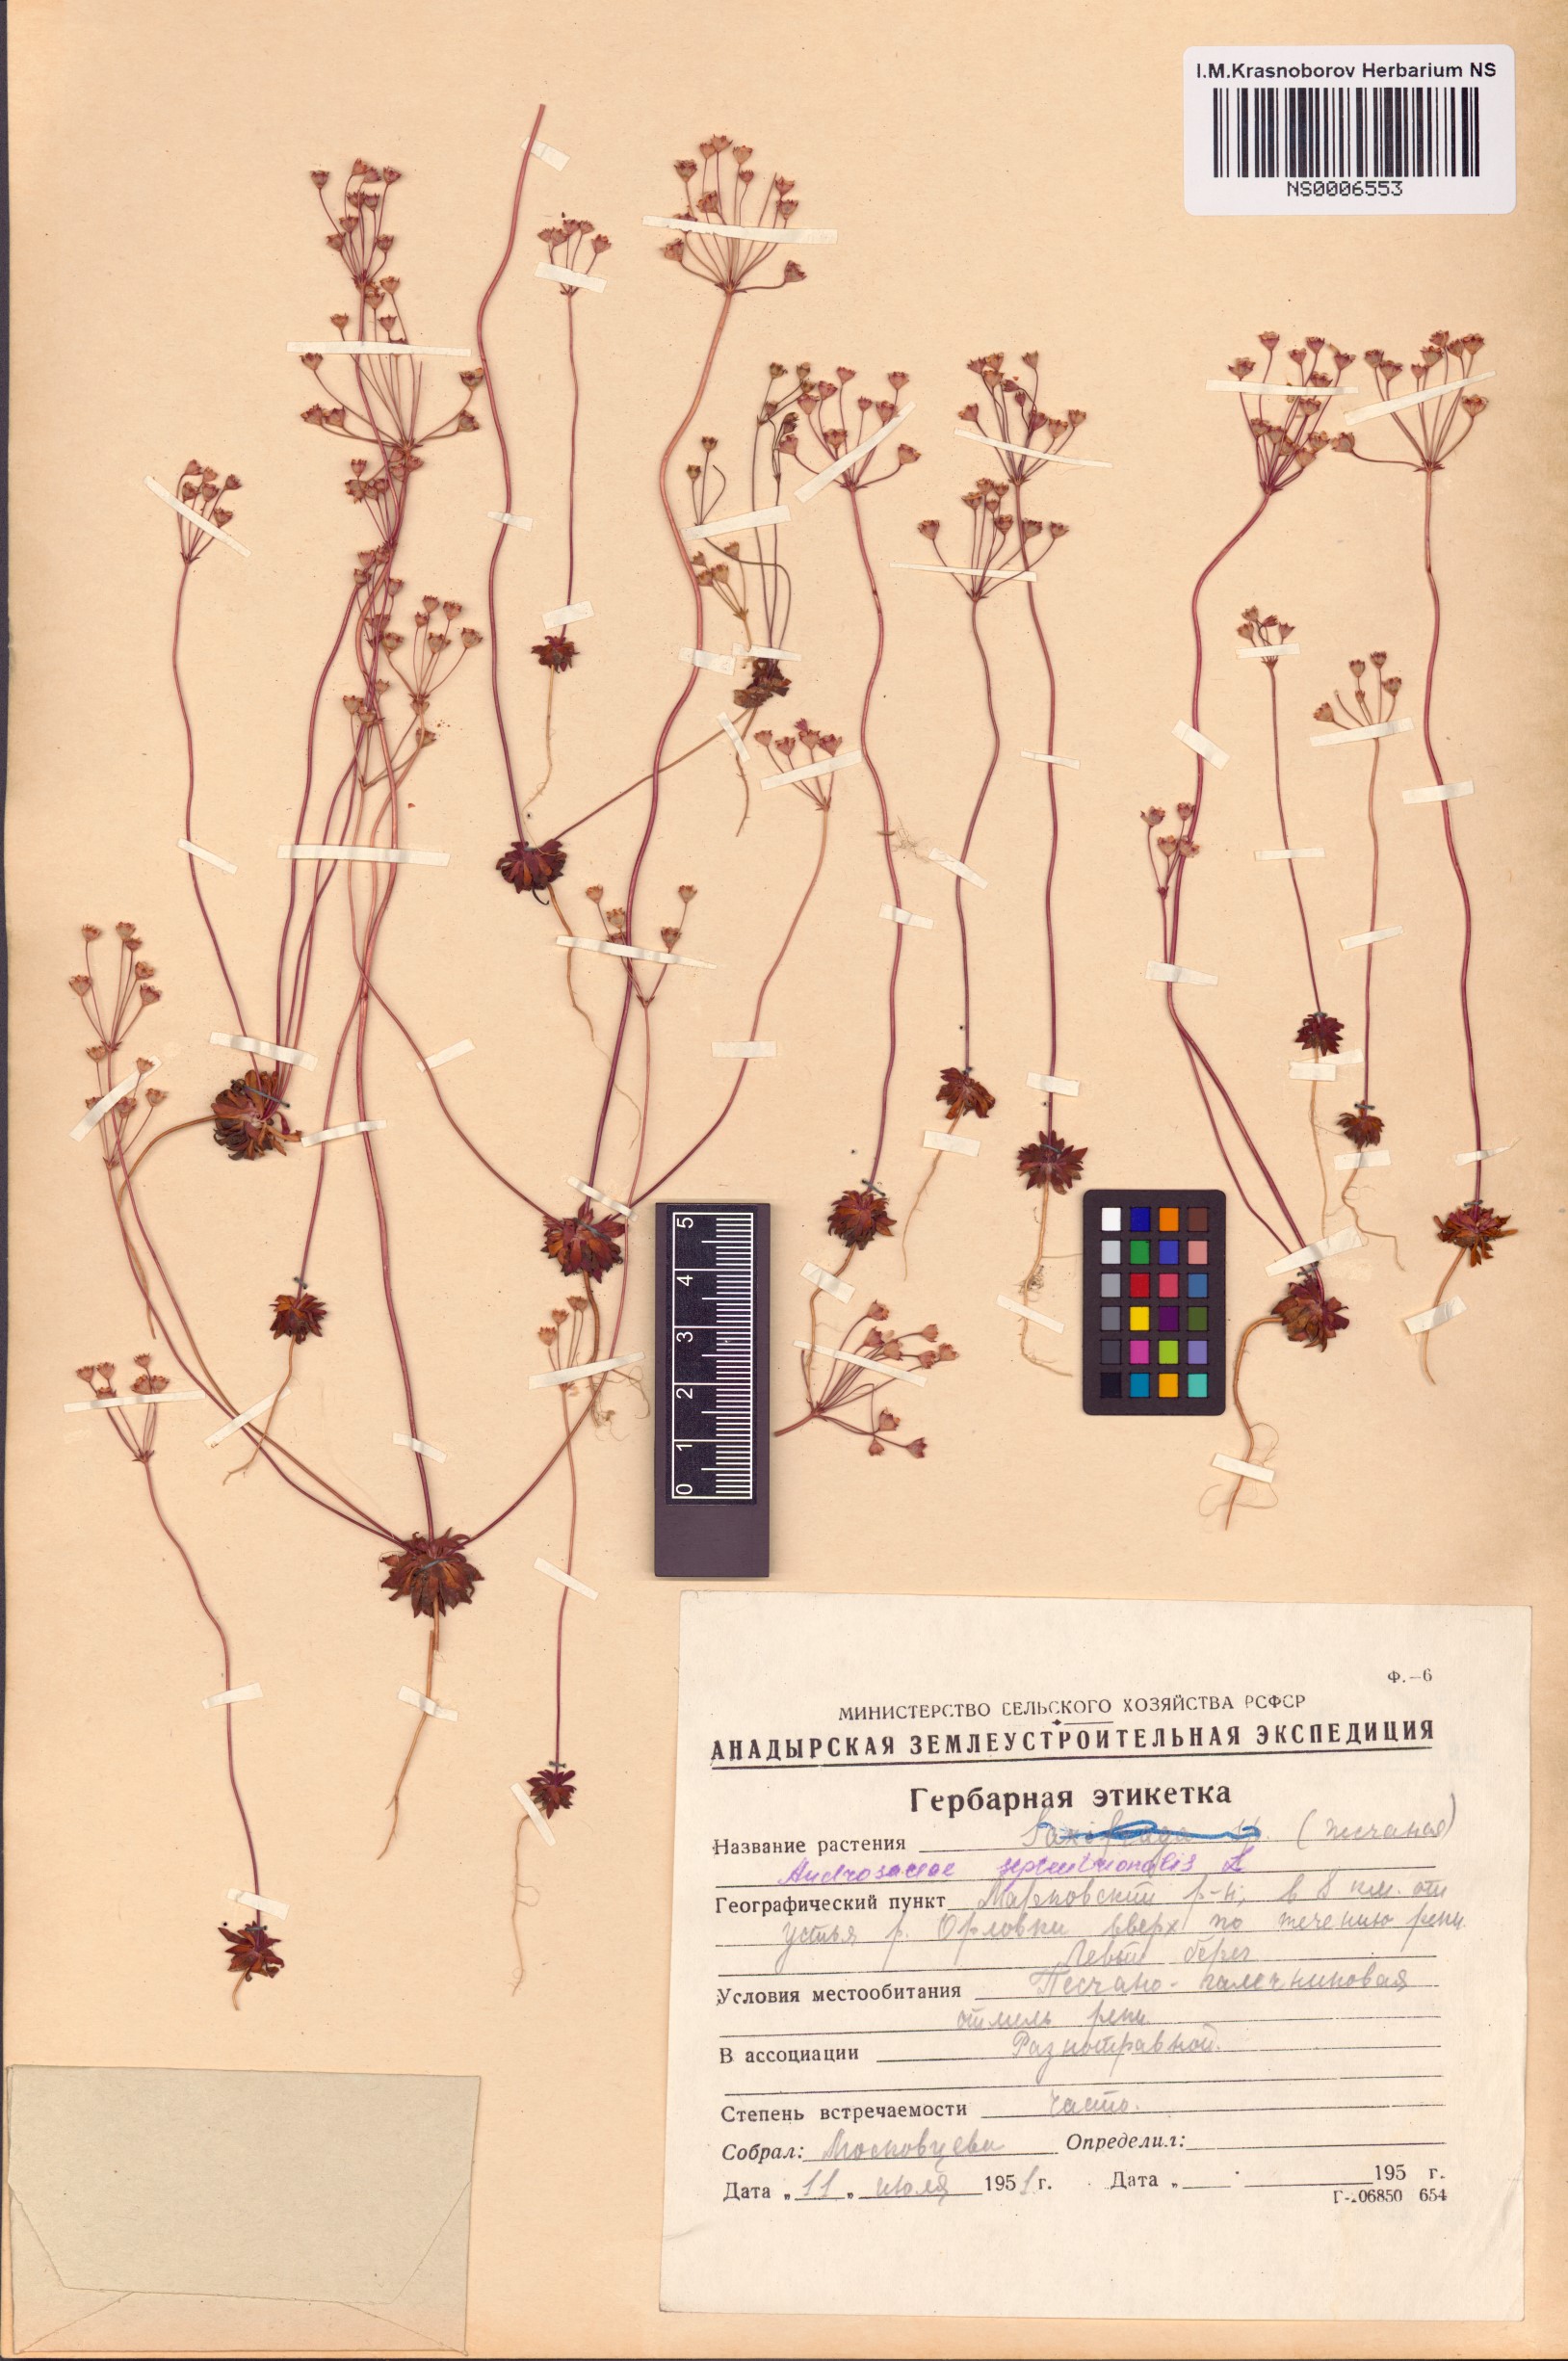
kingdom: Plantae
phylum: Tracheophyta
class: Magnoliopsida
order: Ericales
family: Primulaceae
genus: Androsace
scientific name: Androsace septentrionalis
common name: Hairy northern fairy-candelabra
